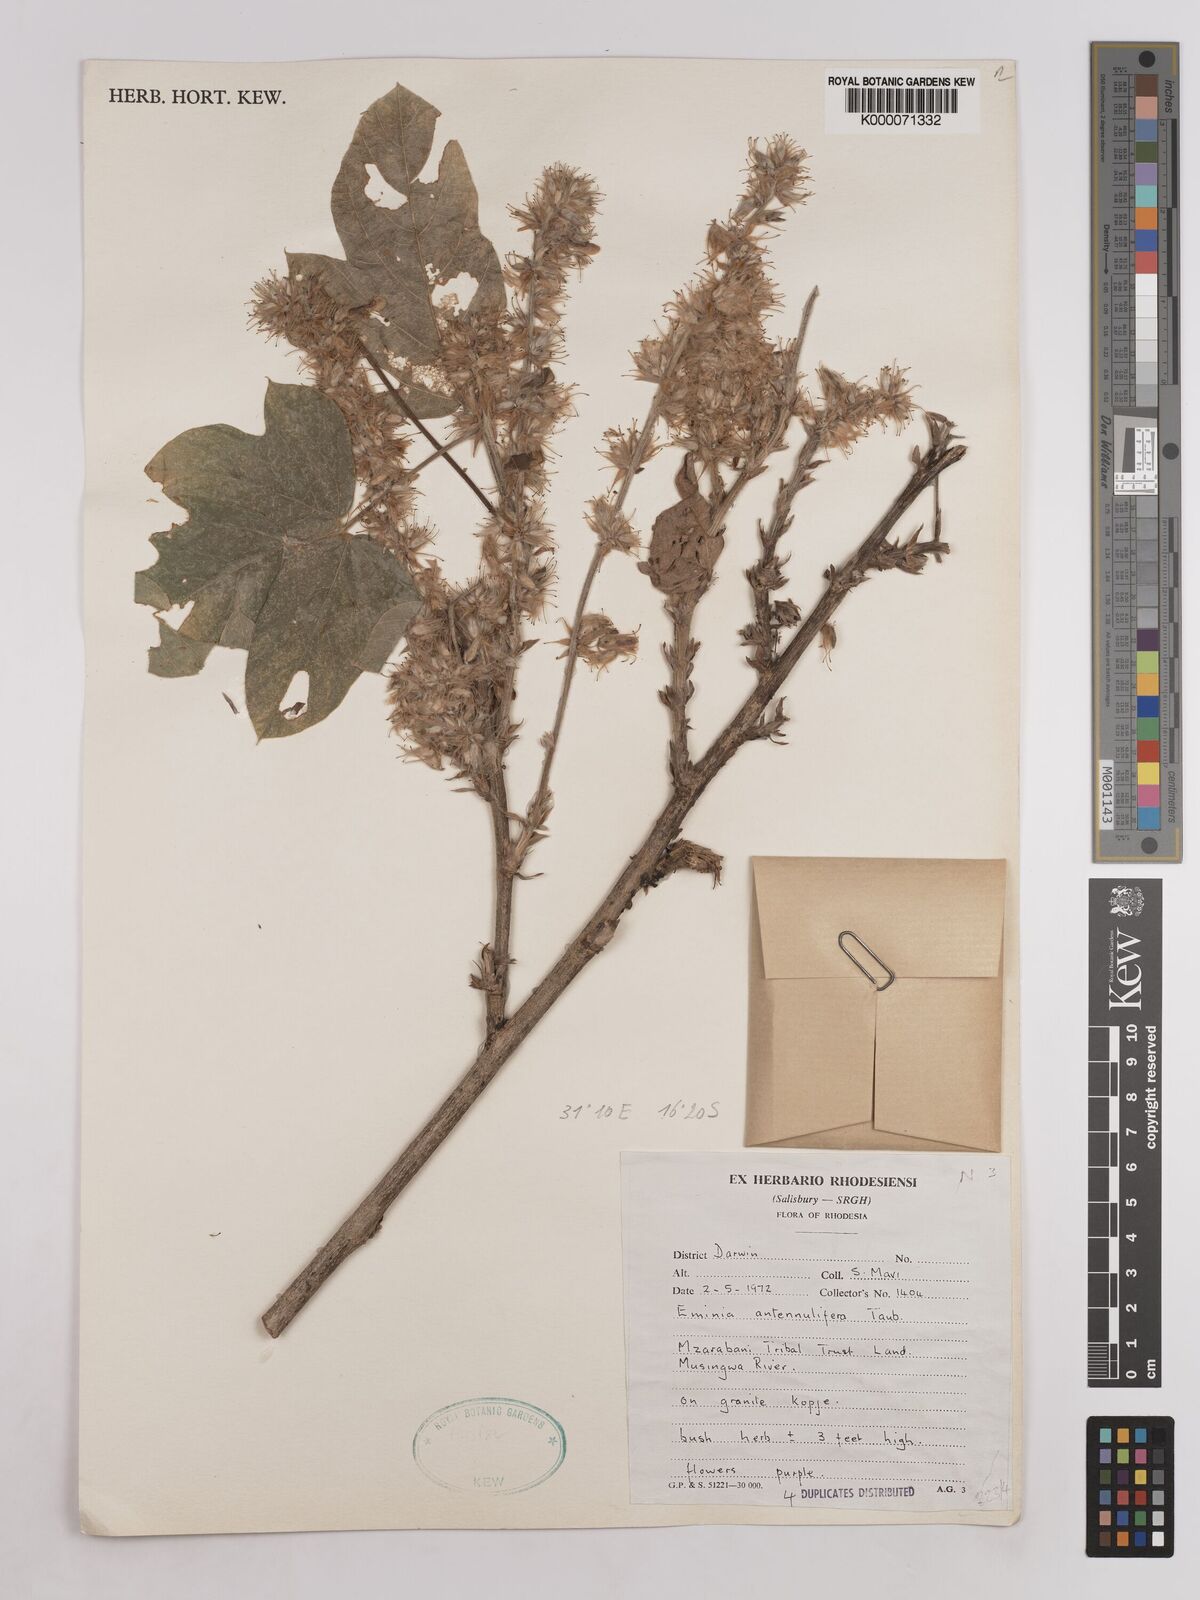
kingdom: Plantae
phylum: Tracheophyta
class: Magnoliopsida
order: Fabales
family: Fabaceae
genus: Eminia
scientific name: Eminia antennulifera
